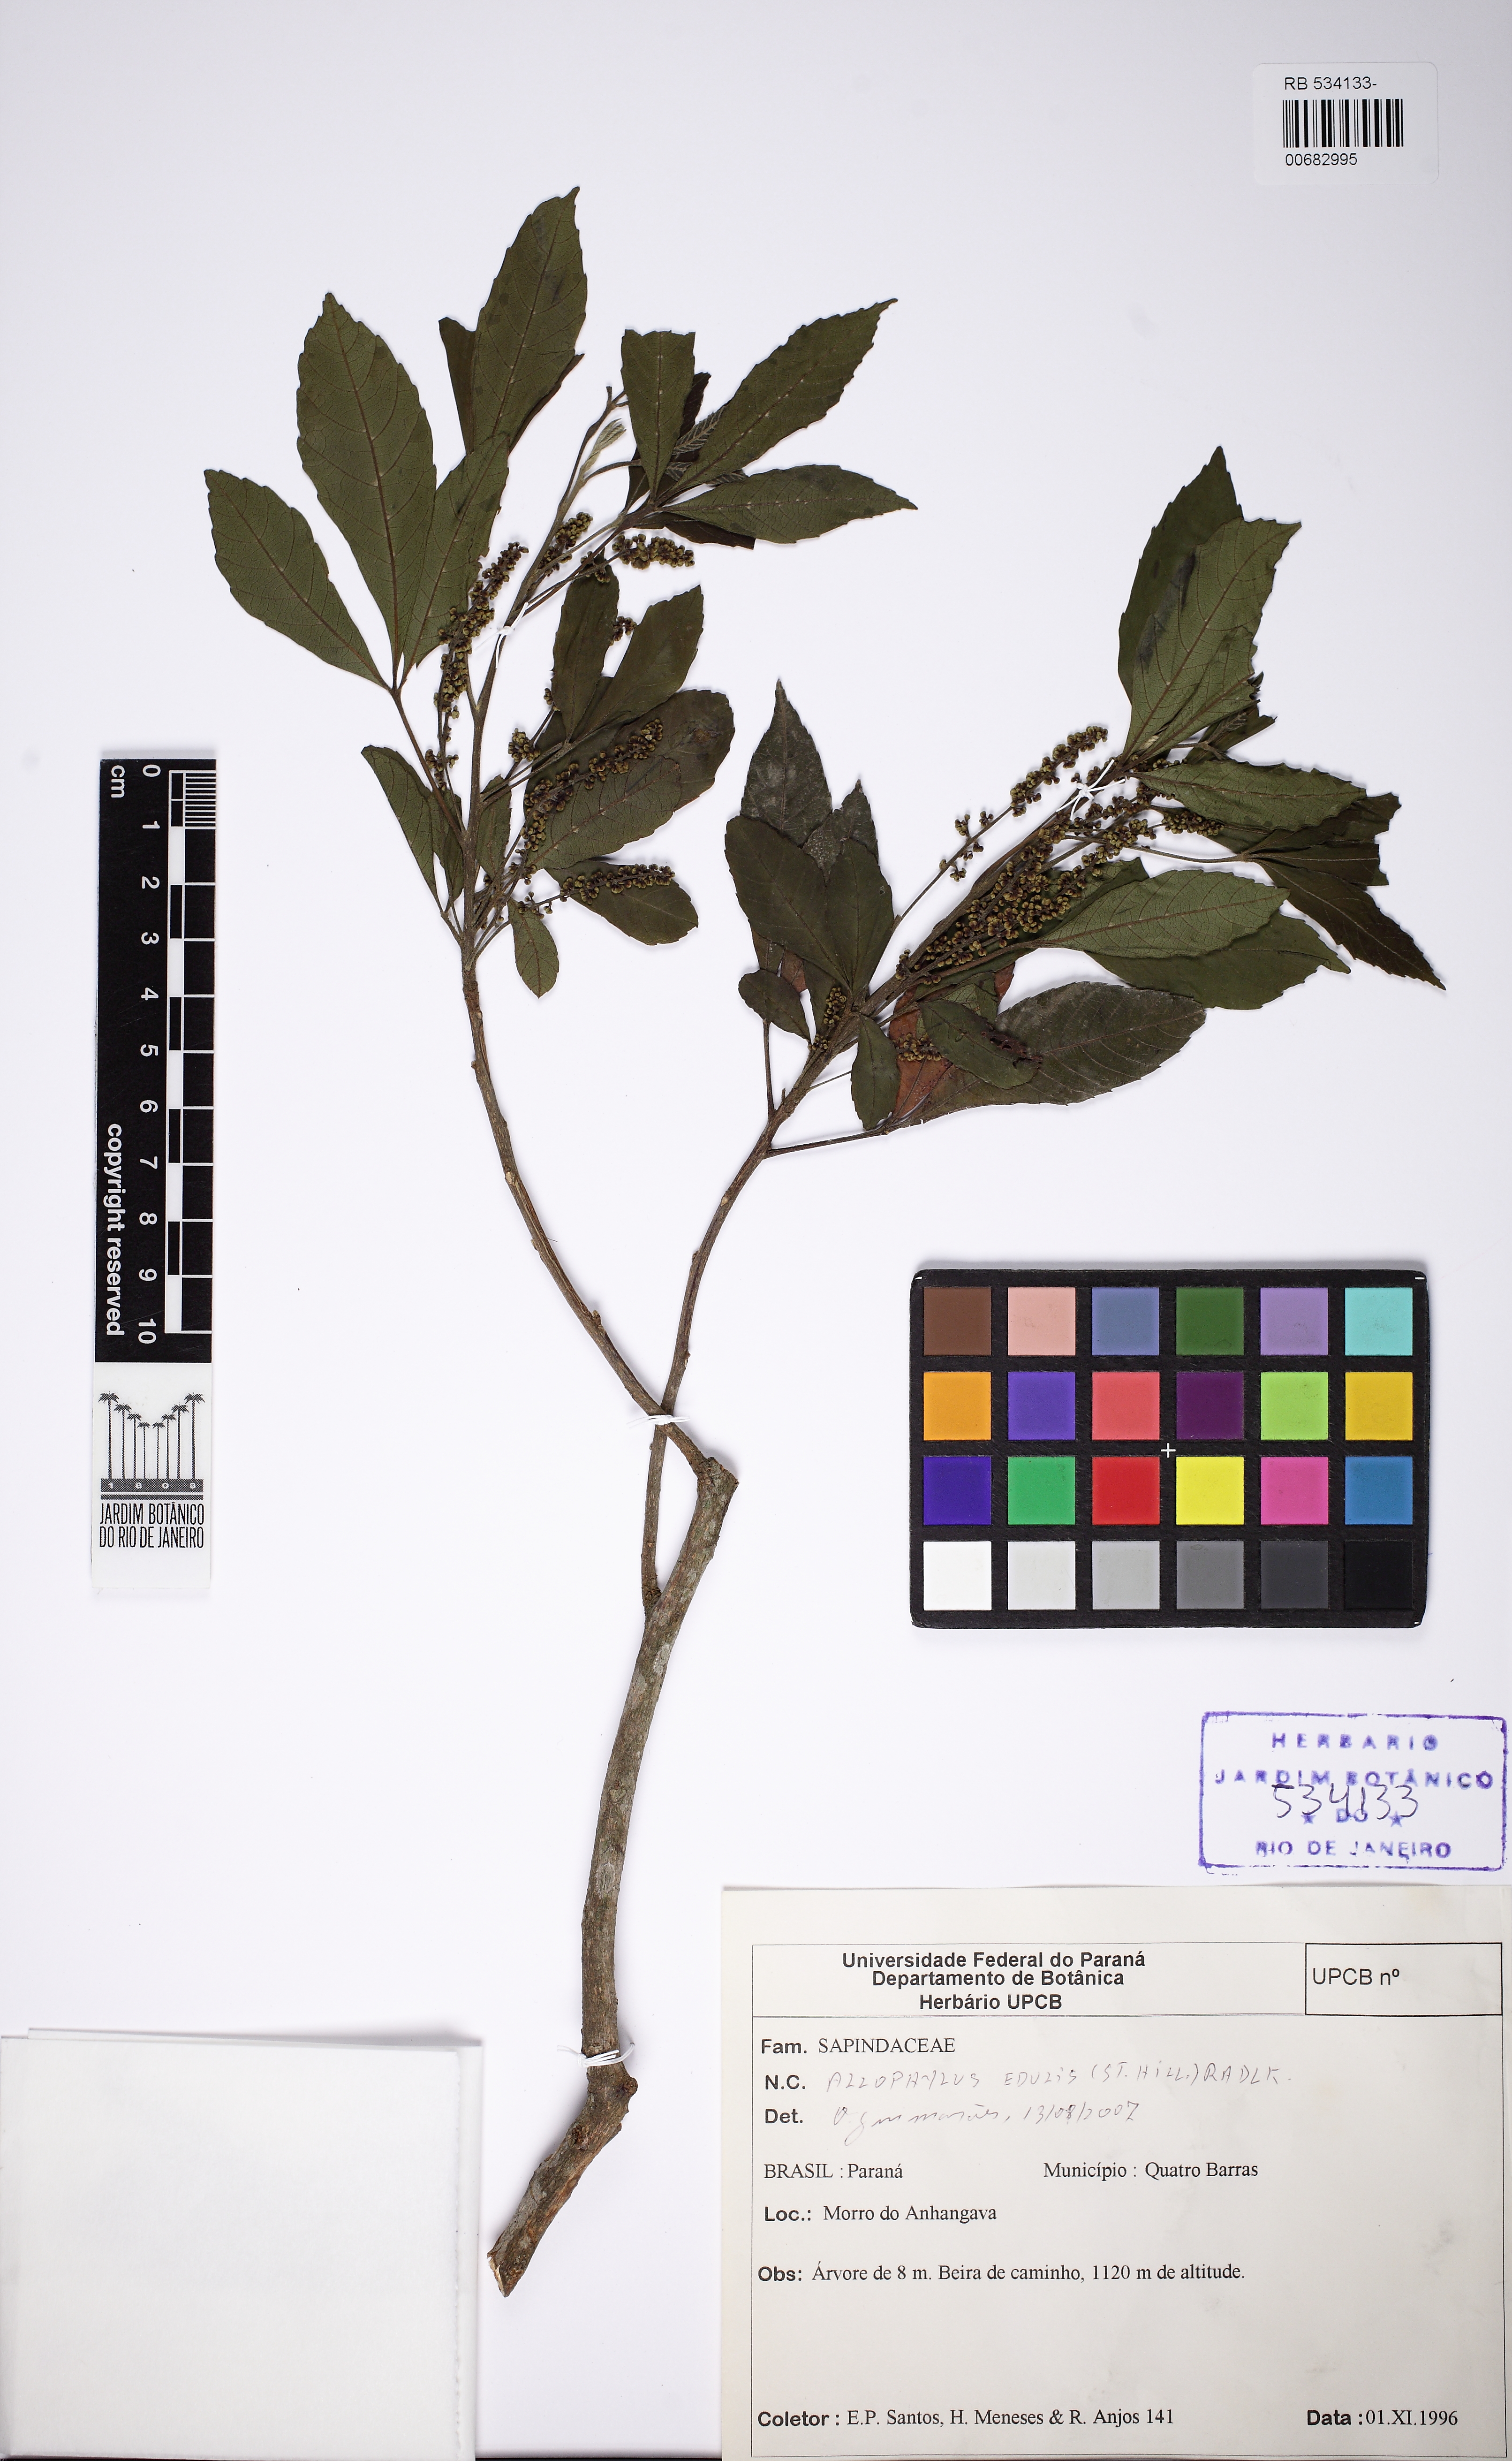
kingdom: Plantae
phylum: Tracheophyta
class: Magnoliopsida
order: Sapindales
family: Sapindaceae
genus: Allophylus
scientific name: Allophylus edulis
